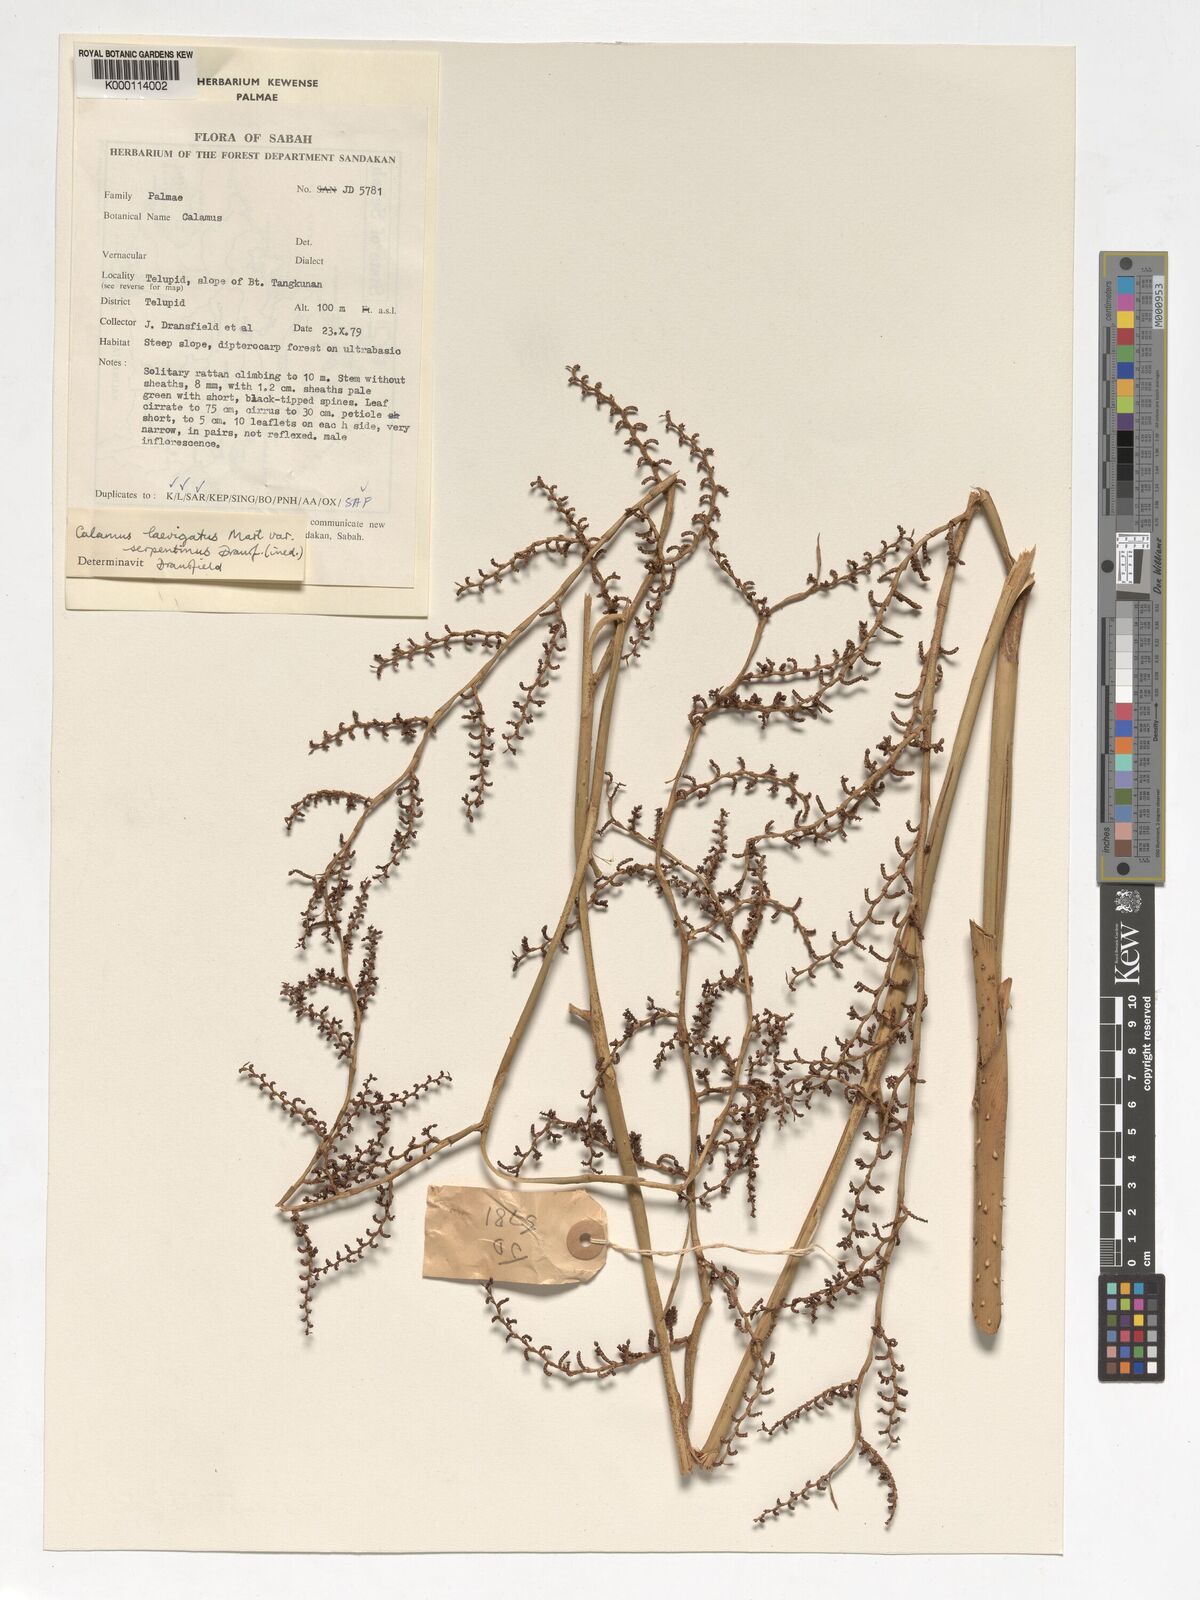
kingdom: Plantae
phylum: Tracheophyta
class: Liliopsida
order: Arecales
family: Arecaceae
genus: Calamus
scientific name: Calamus plicatus
